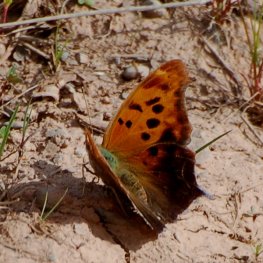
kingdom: Animalia
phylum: Arthropoda
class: Insecta
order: Lepidoptera
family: Nymphalidae
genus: Polygonia
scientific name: Polygonia interrogationis
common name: Question Mark
